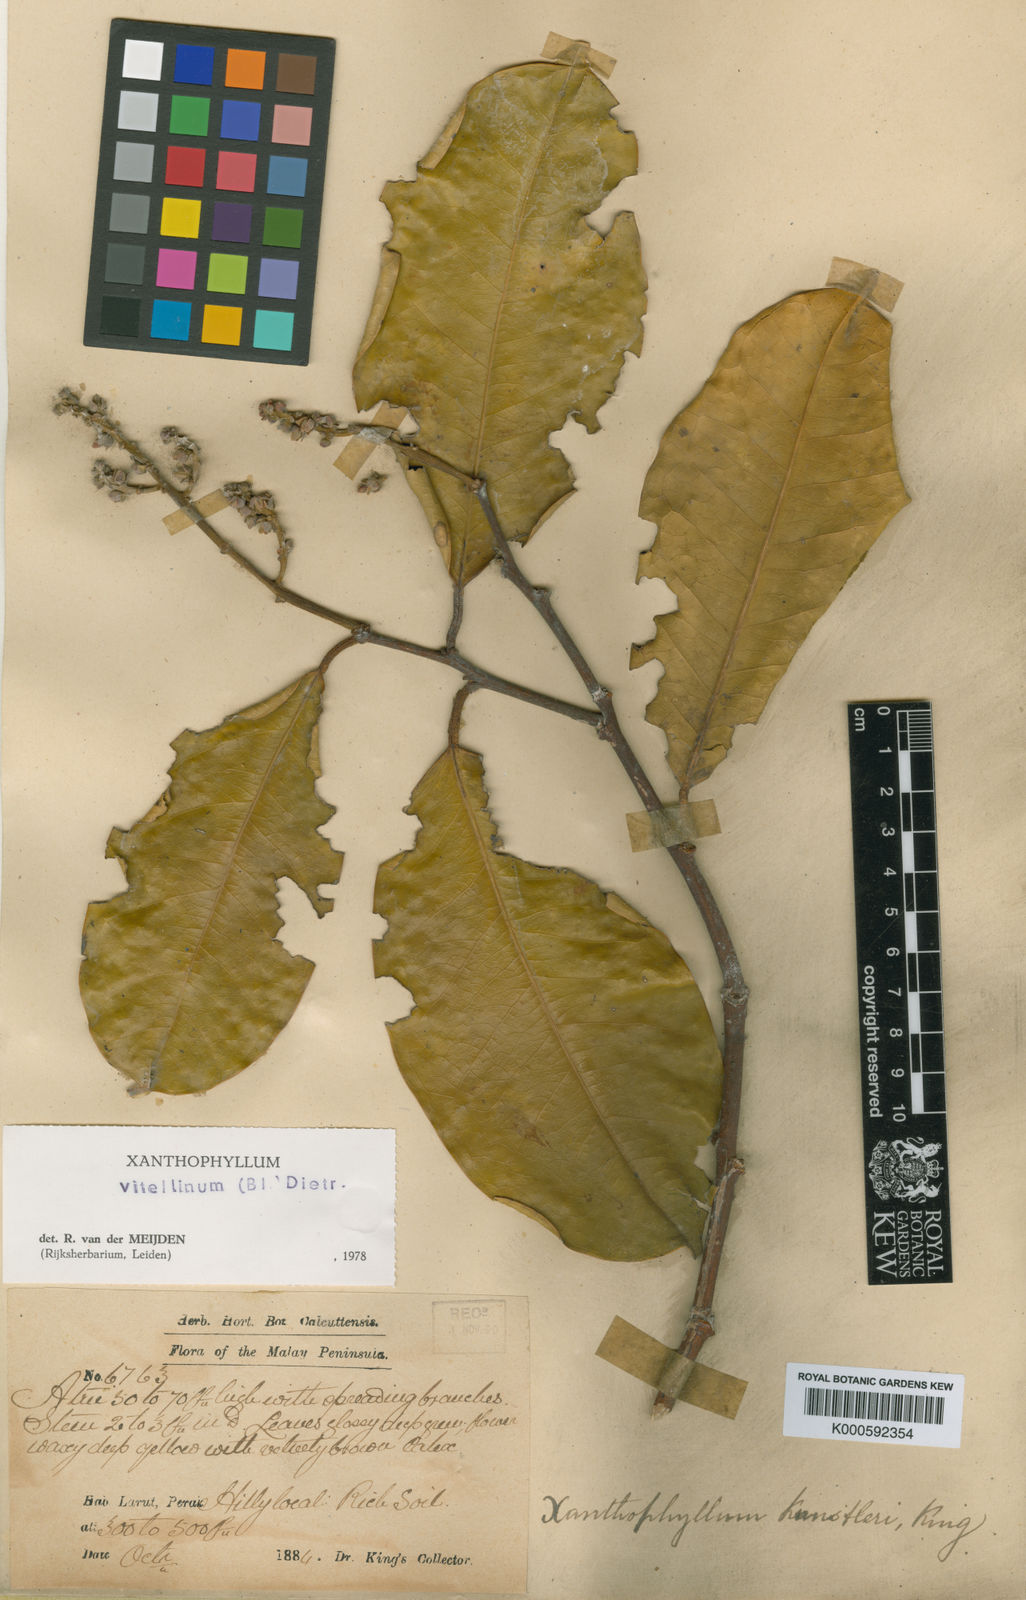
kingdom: Plantae
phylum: Tracheophyta
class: Magnoliopsida
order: Fabales
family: Polygalaceae
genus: Xanthophyllum
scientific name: Xanthophyllum vitellinum
